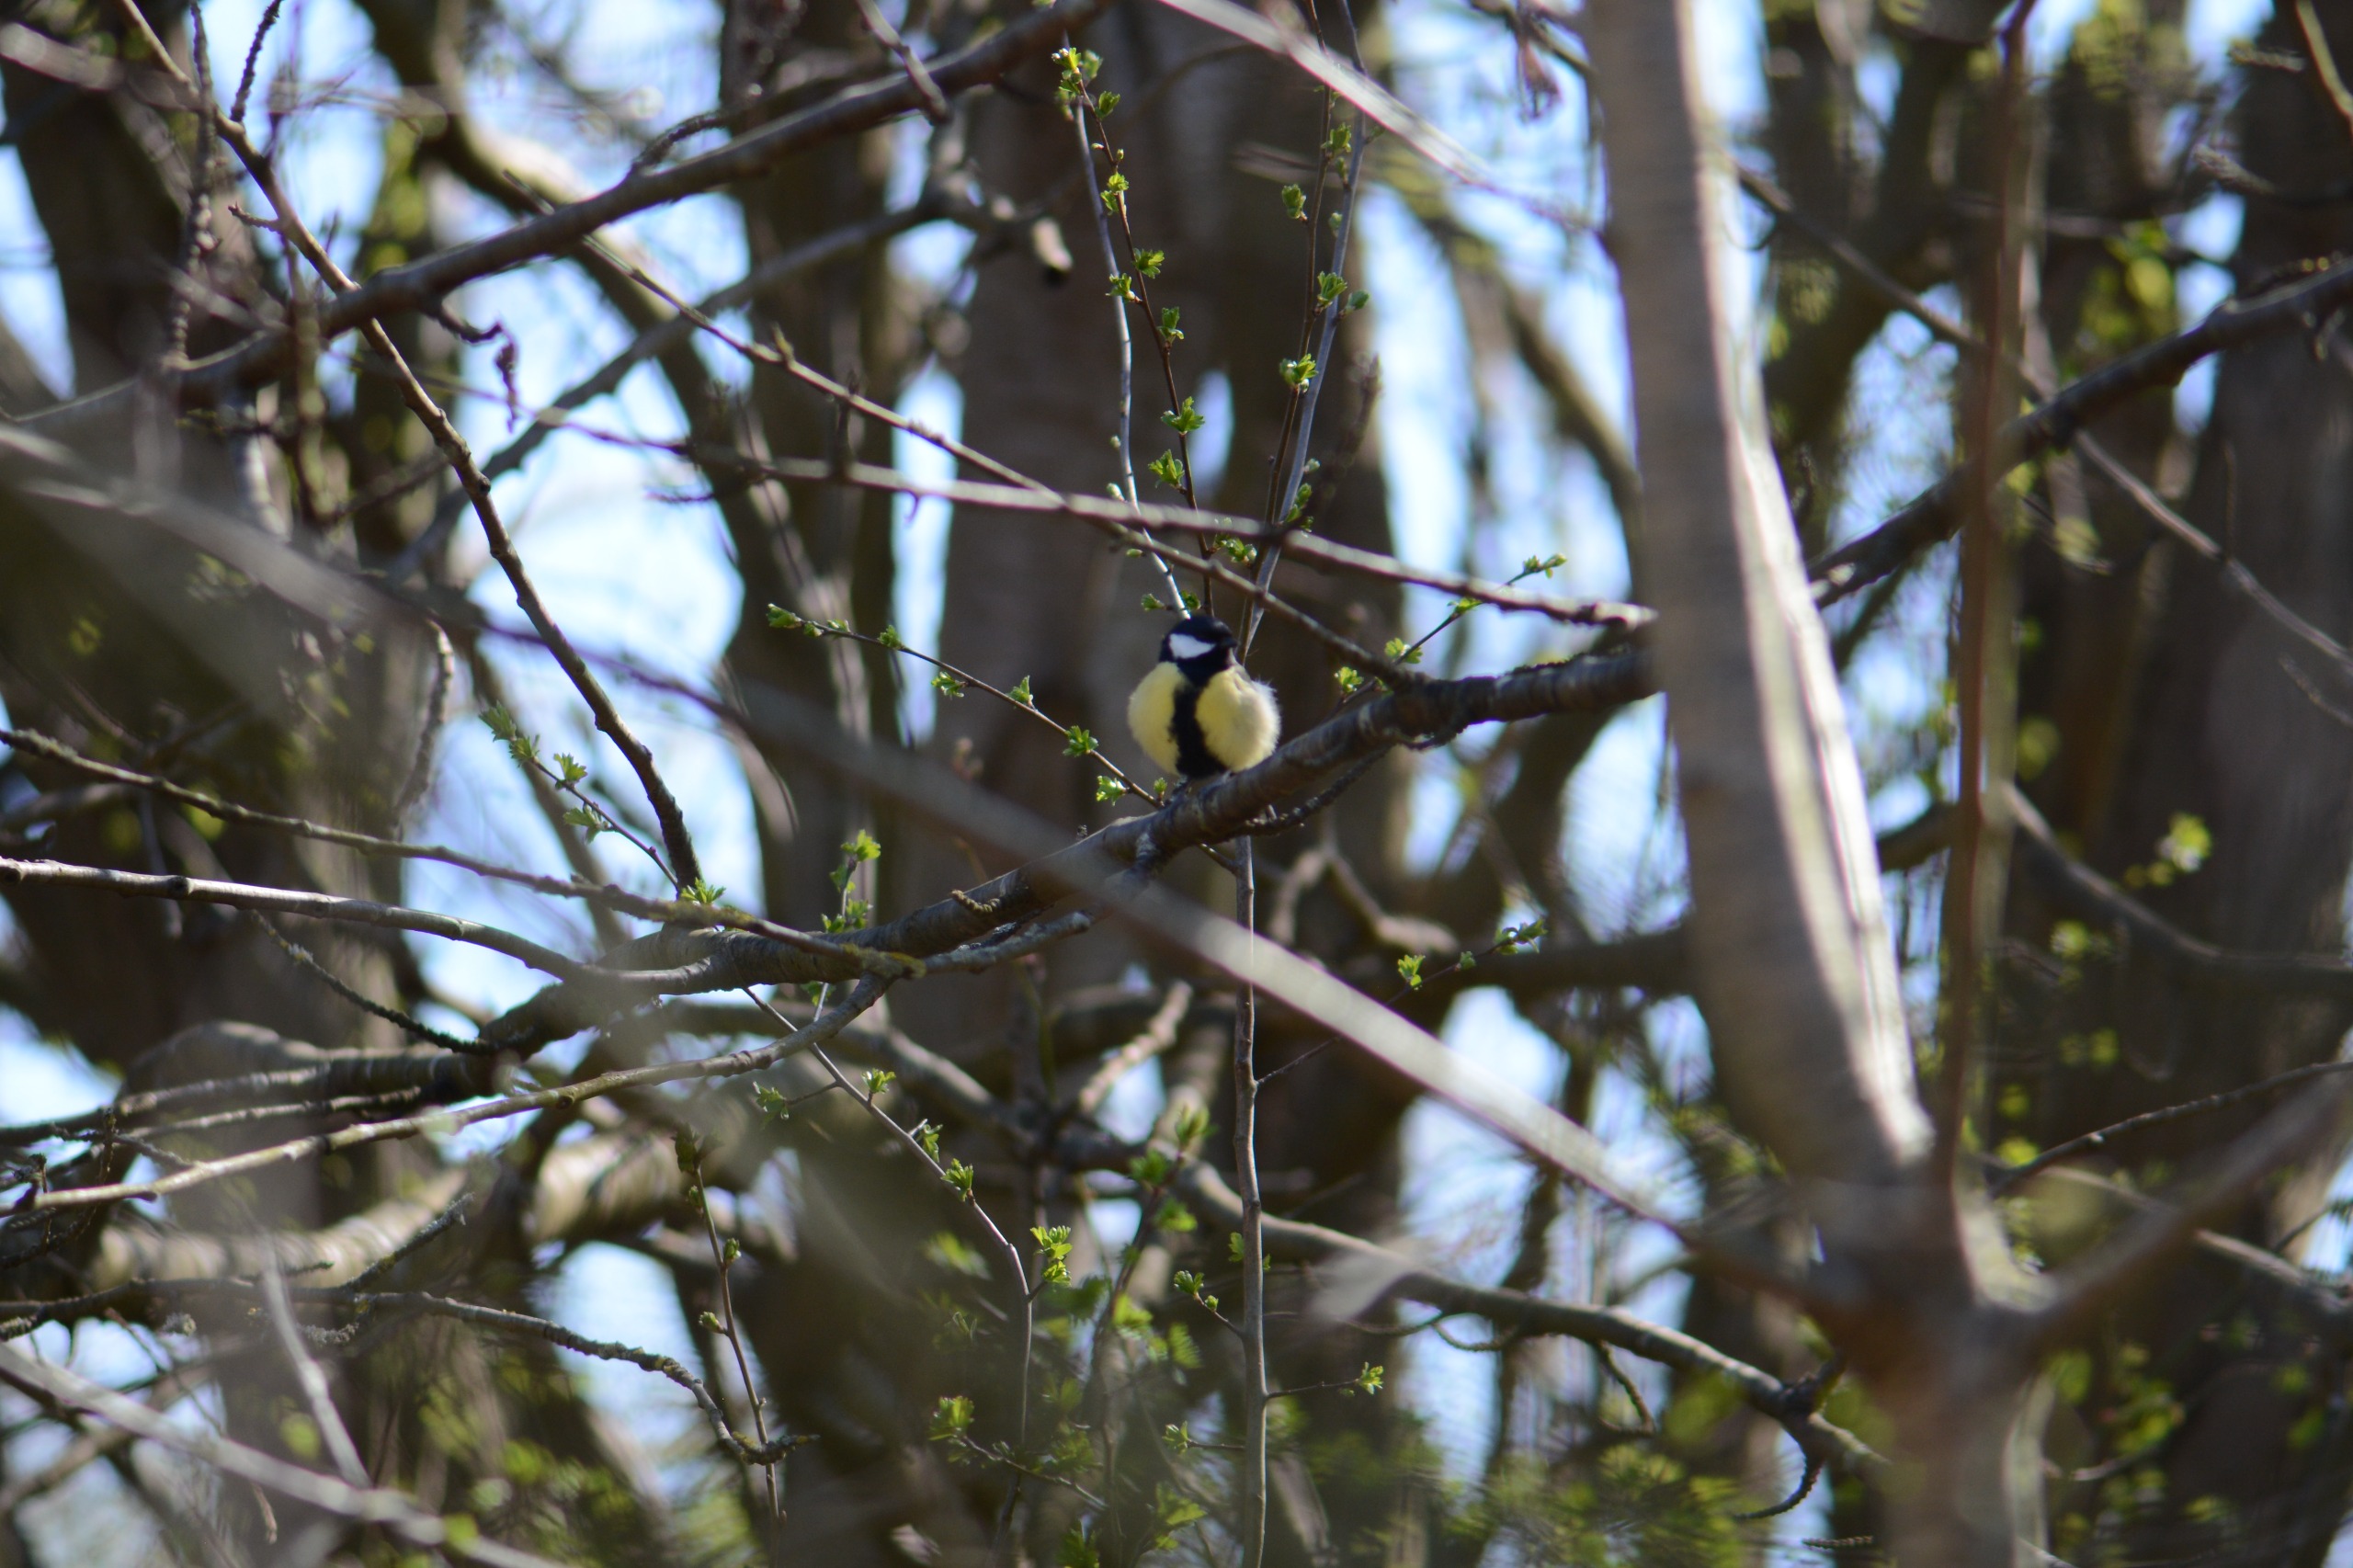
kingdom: Animalia
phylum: Chordata
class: Aves
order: Passeriformes
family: Paridae
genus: Parus
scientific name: Parus major
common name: Musvit
